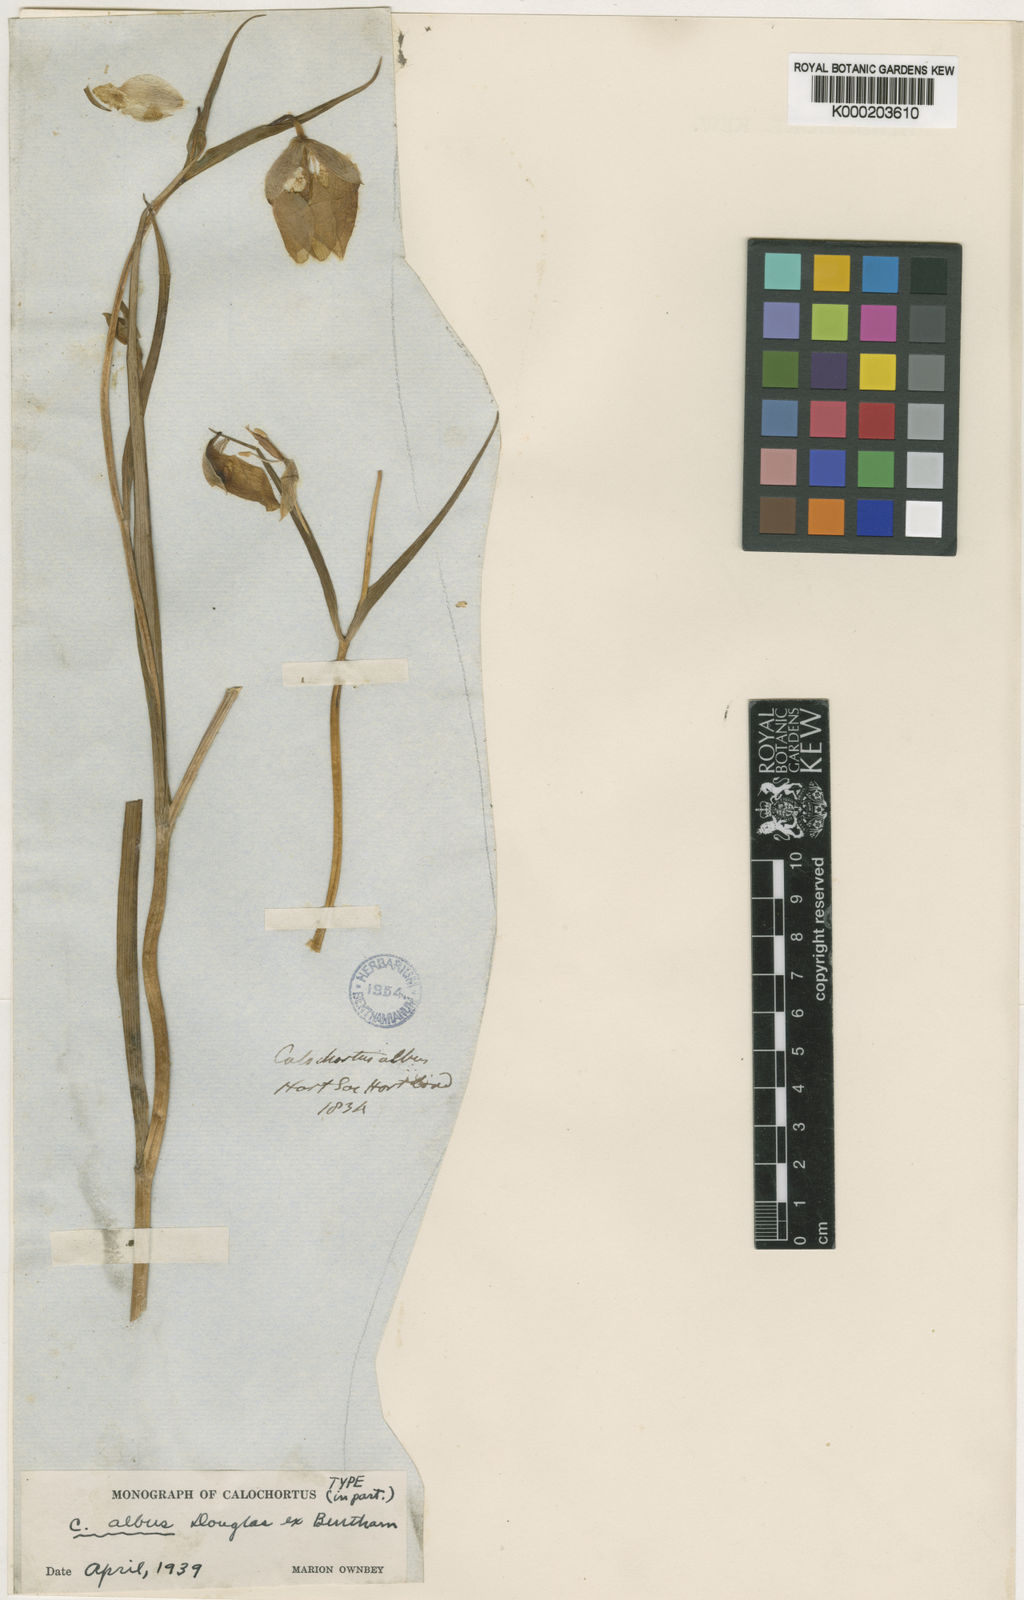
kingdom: Plantae
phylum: Tracheophyta
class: Liliopsida
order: Liliales
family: Liliaceae
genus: Calochortus
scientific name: Calochortus albus
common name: Fairy-lantern
